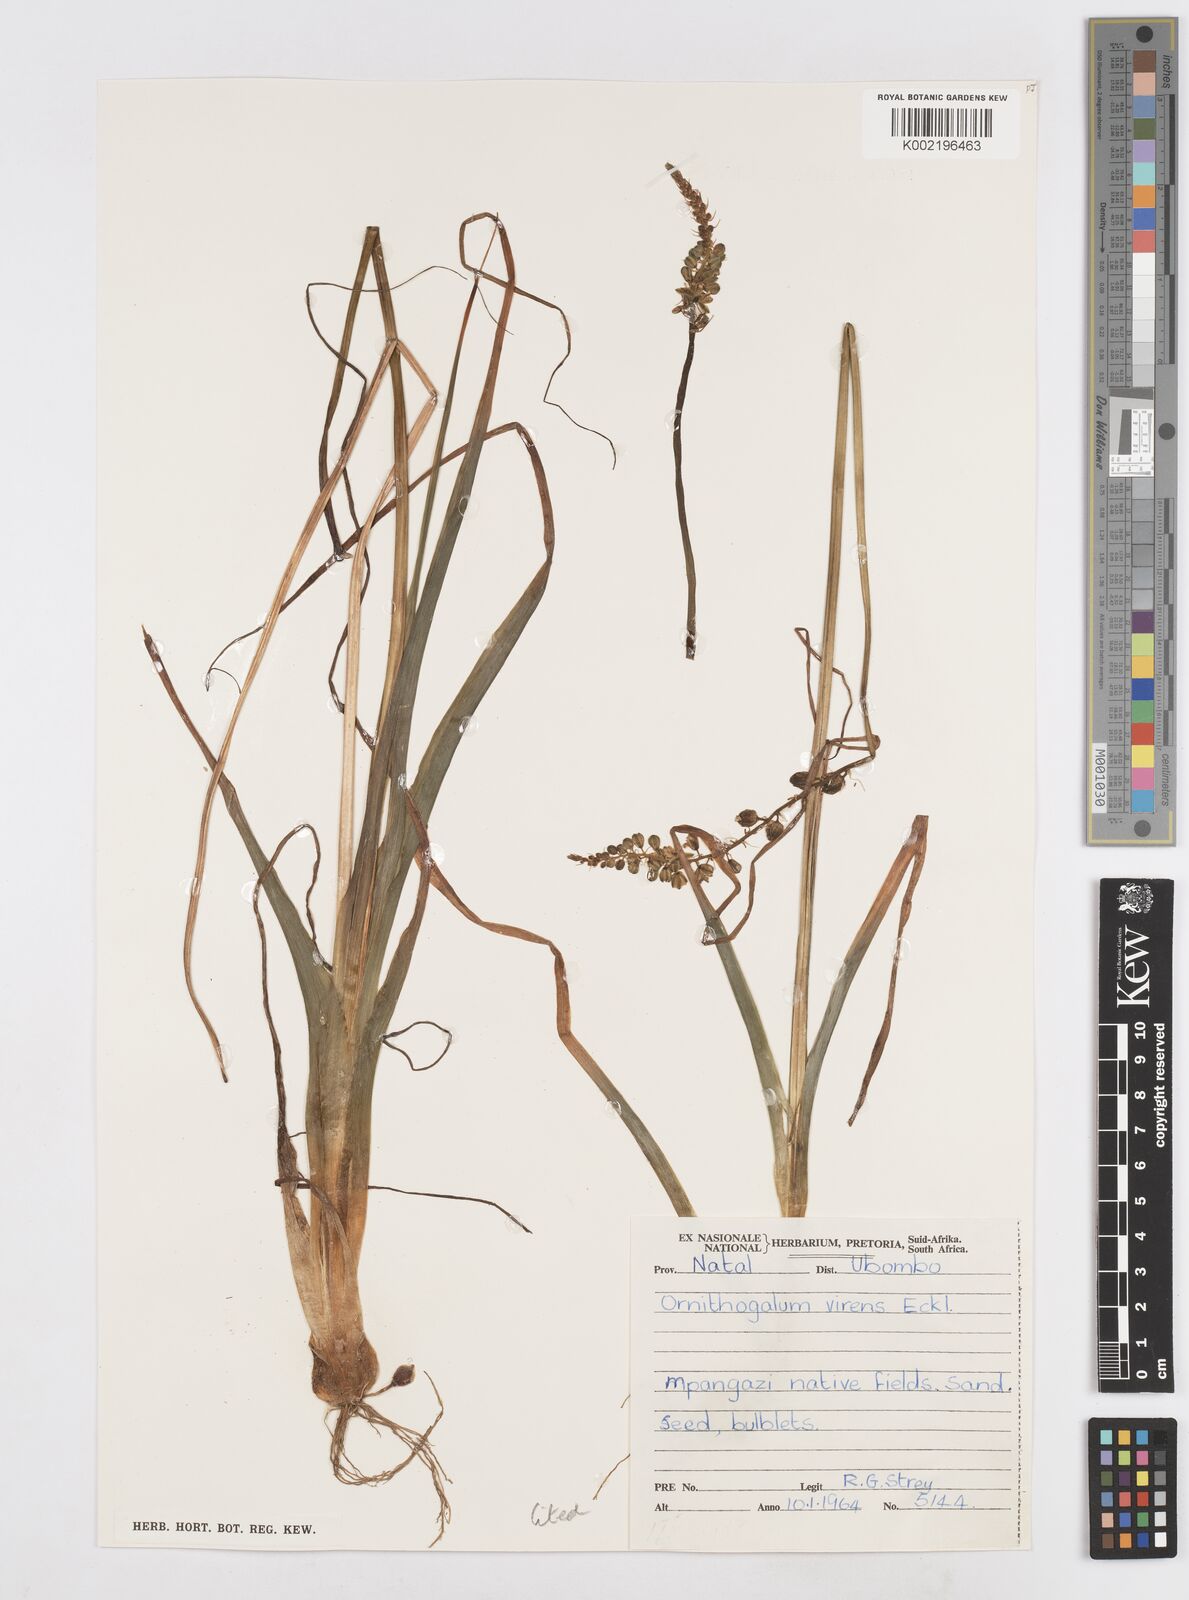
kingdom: Plantae
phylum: Tracheophyta
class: Liliopsida
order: Asparagales
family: Asparagaceae
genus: Albuca
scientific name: Albuca virens
